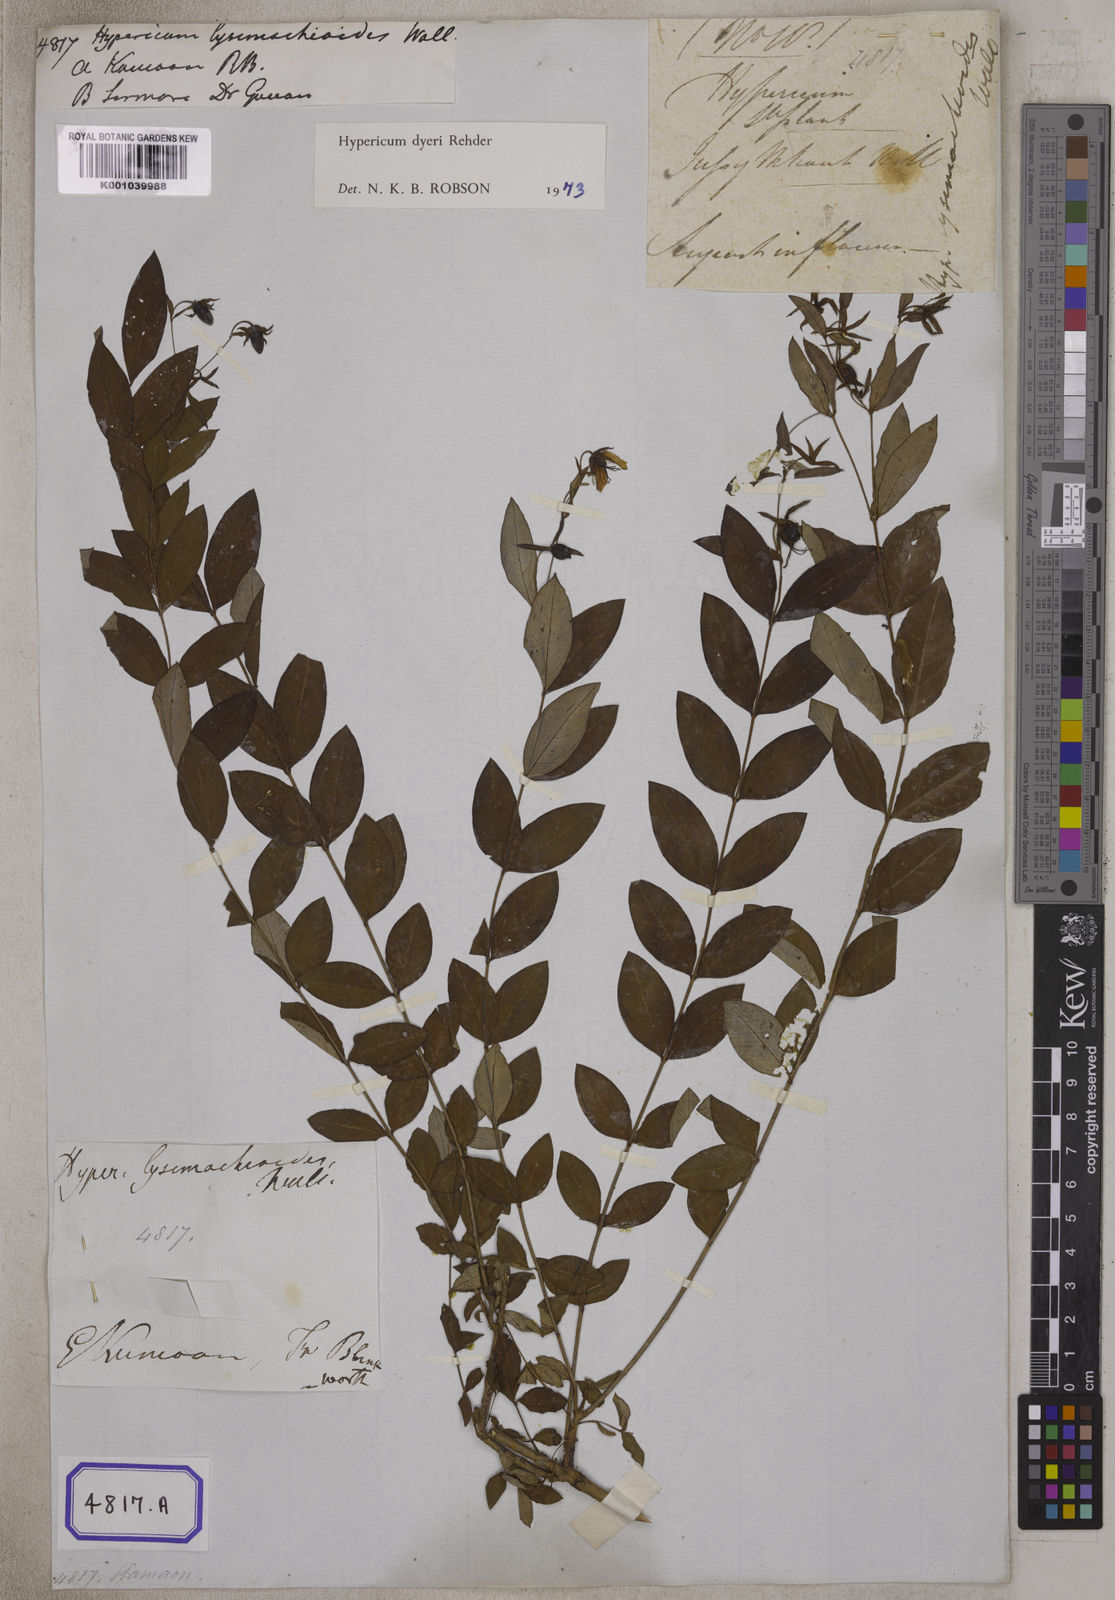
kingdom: Plantae
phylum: Tracheophyta
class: Magnoliopsida
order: Malpighiales
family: Hypericaceae
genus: Hypericum
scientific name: Hypericum
